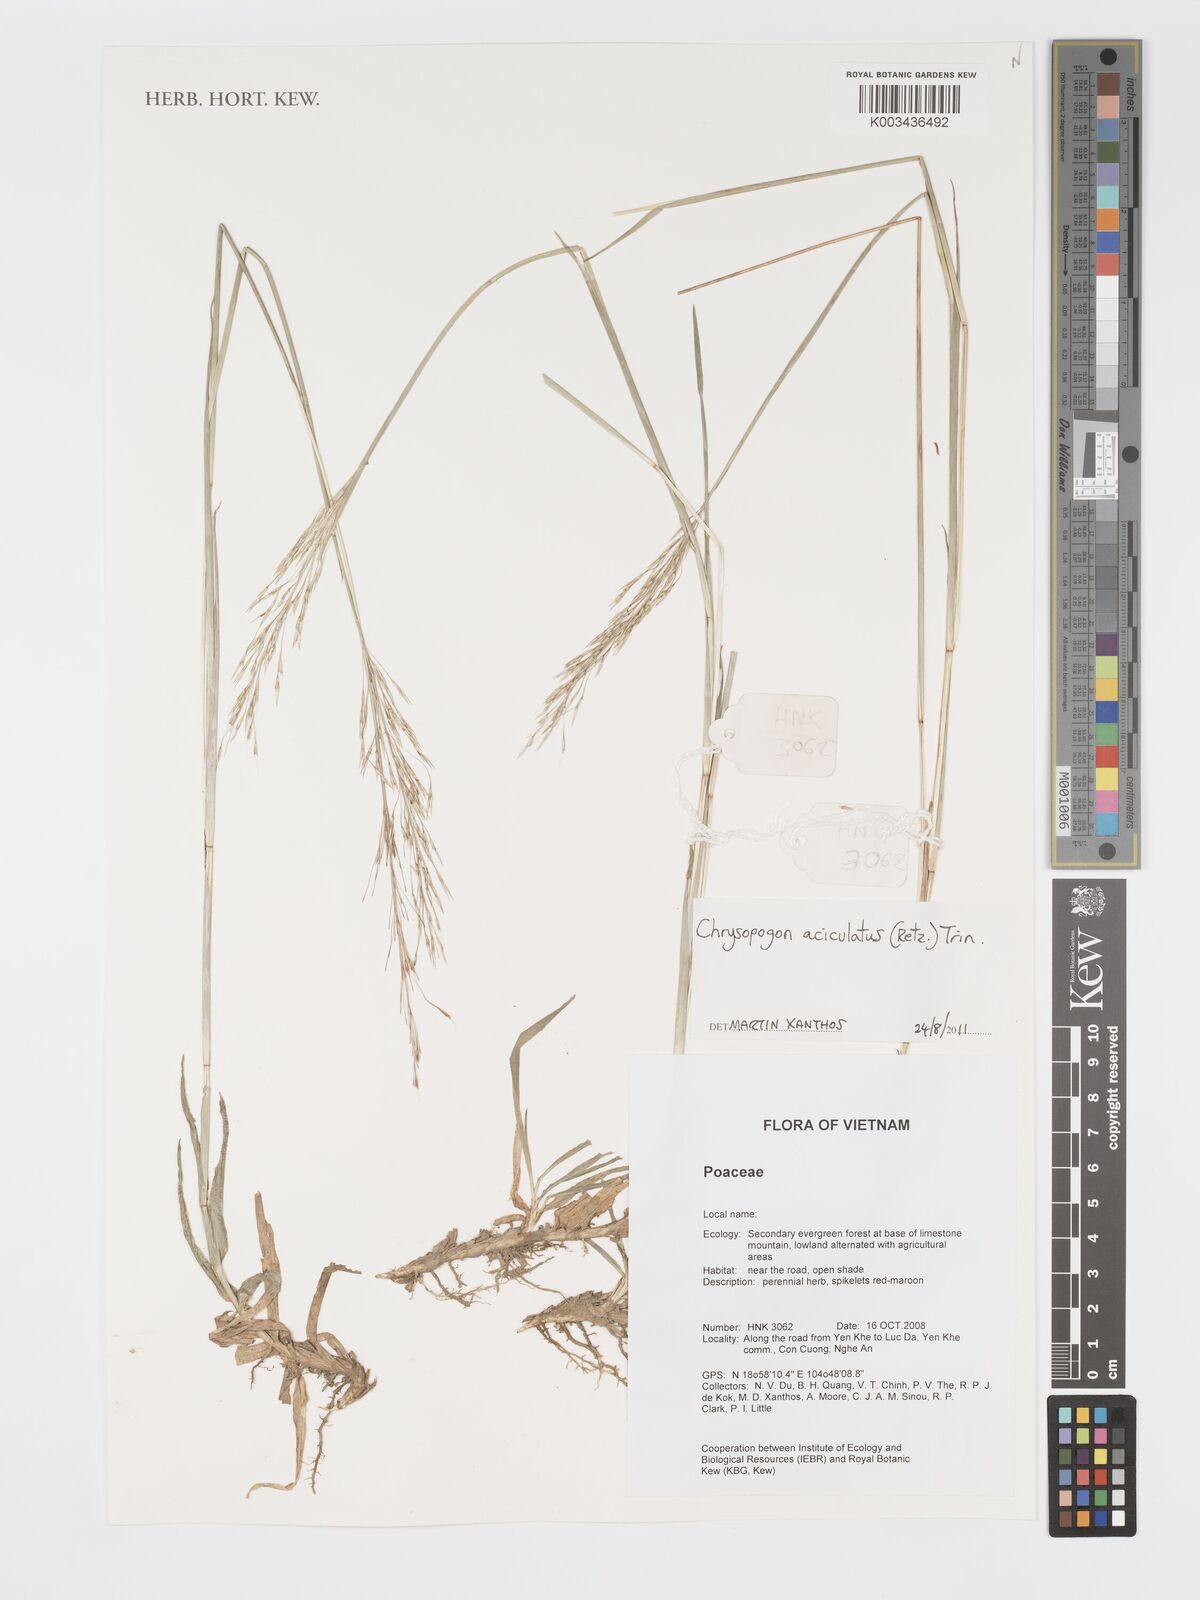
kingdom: Plantae
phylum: Tracheophyta
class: Liliopsida
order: Poales
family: Poaceae
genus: Chrysopogon
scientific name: Chrysopogon aciculatus
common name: Pilipiliula
